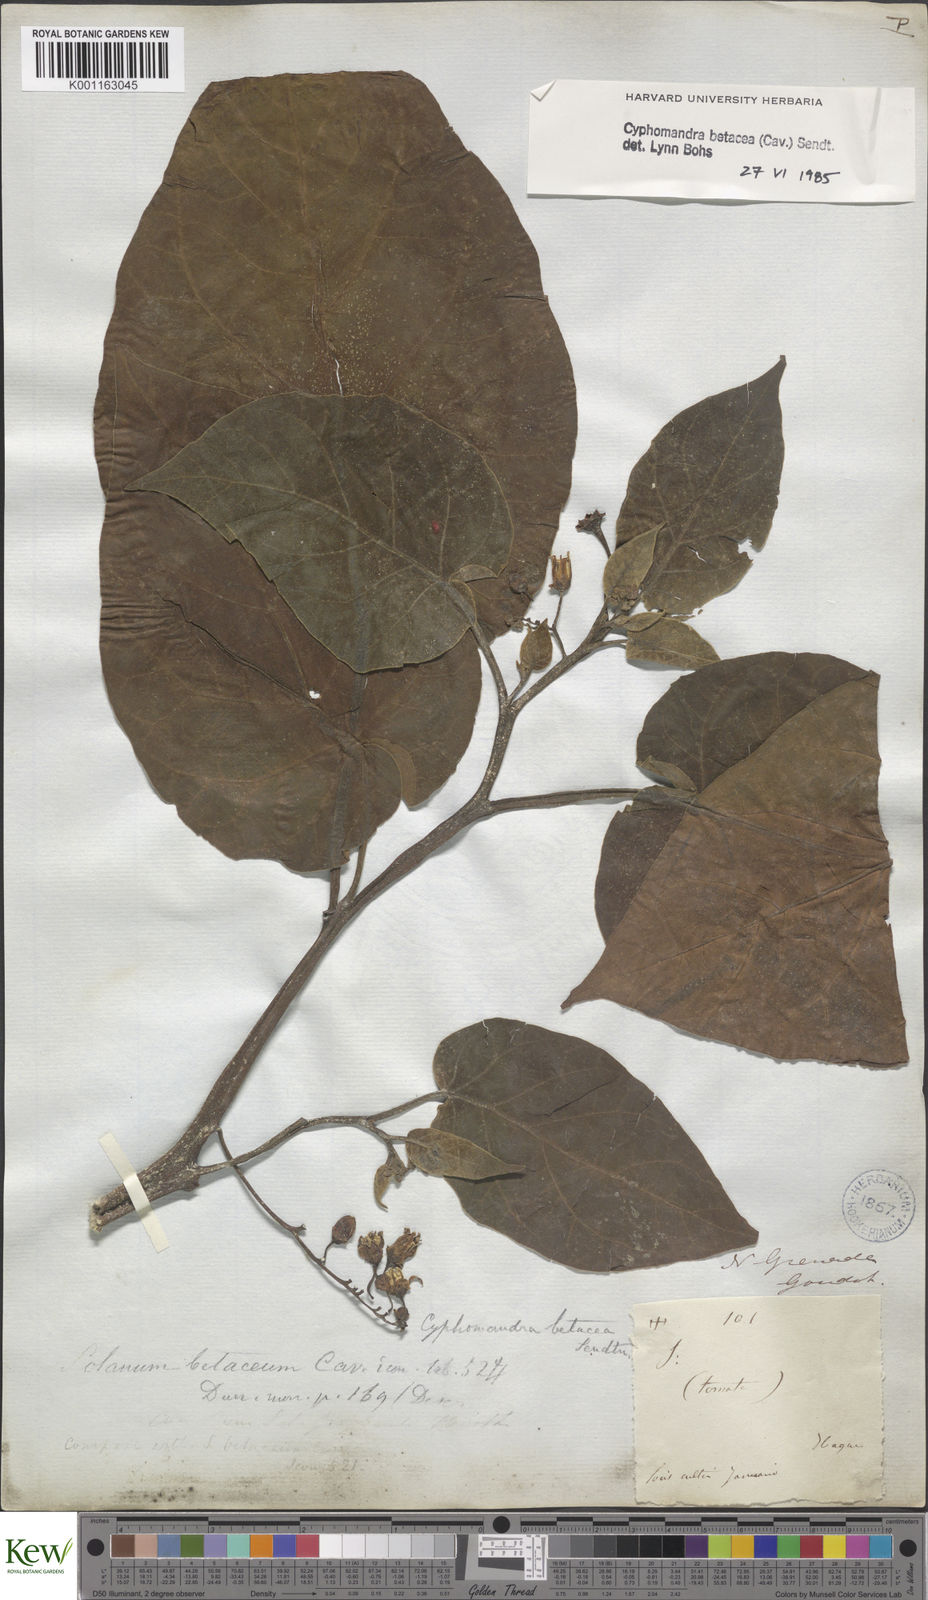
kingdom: Plantae
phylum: Tracheophyta
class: Magnoliopsida
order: Solanales
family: Solanaceae
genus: Solanum
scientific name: Solanum betaceum
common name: Tamarillo
